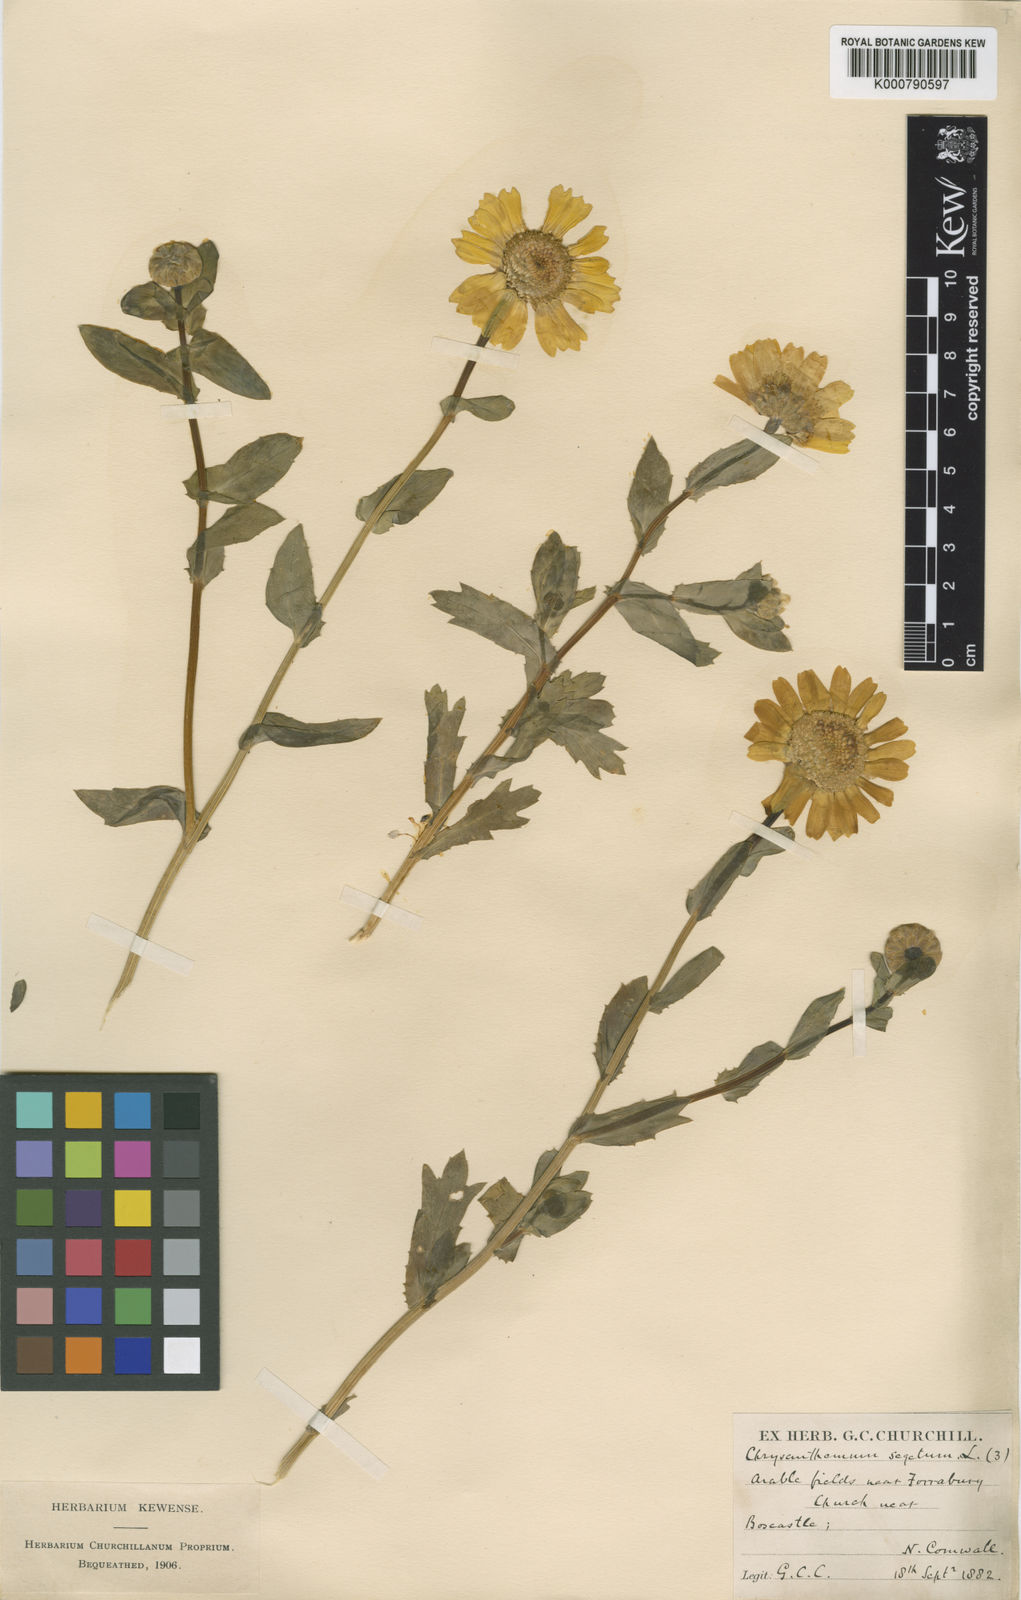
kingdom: Plantae
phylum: Tracheophyta
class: Magnoliopsida
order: Asterales
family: Asteraceae
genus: Glebionis
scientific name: Glebionis segetum
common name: Corndaisy
